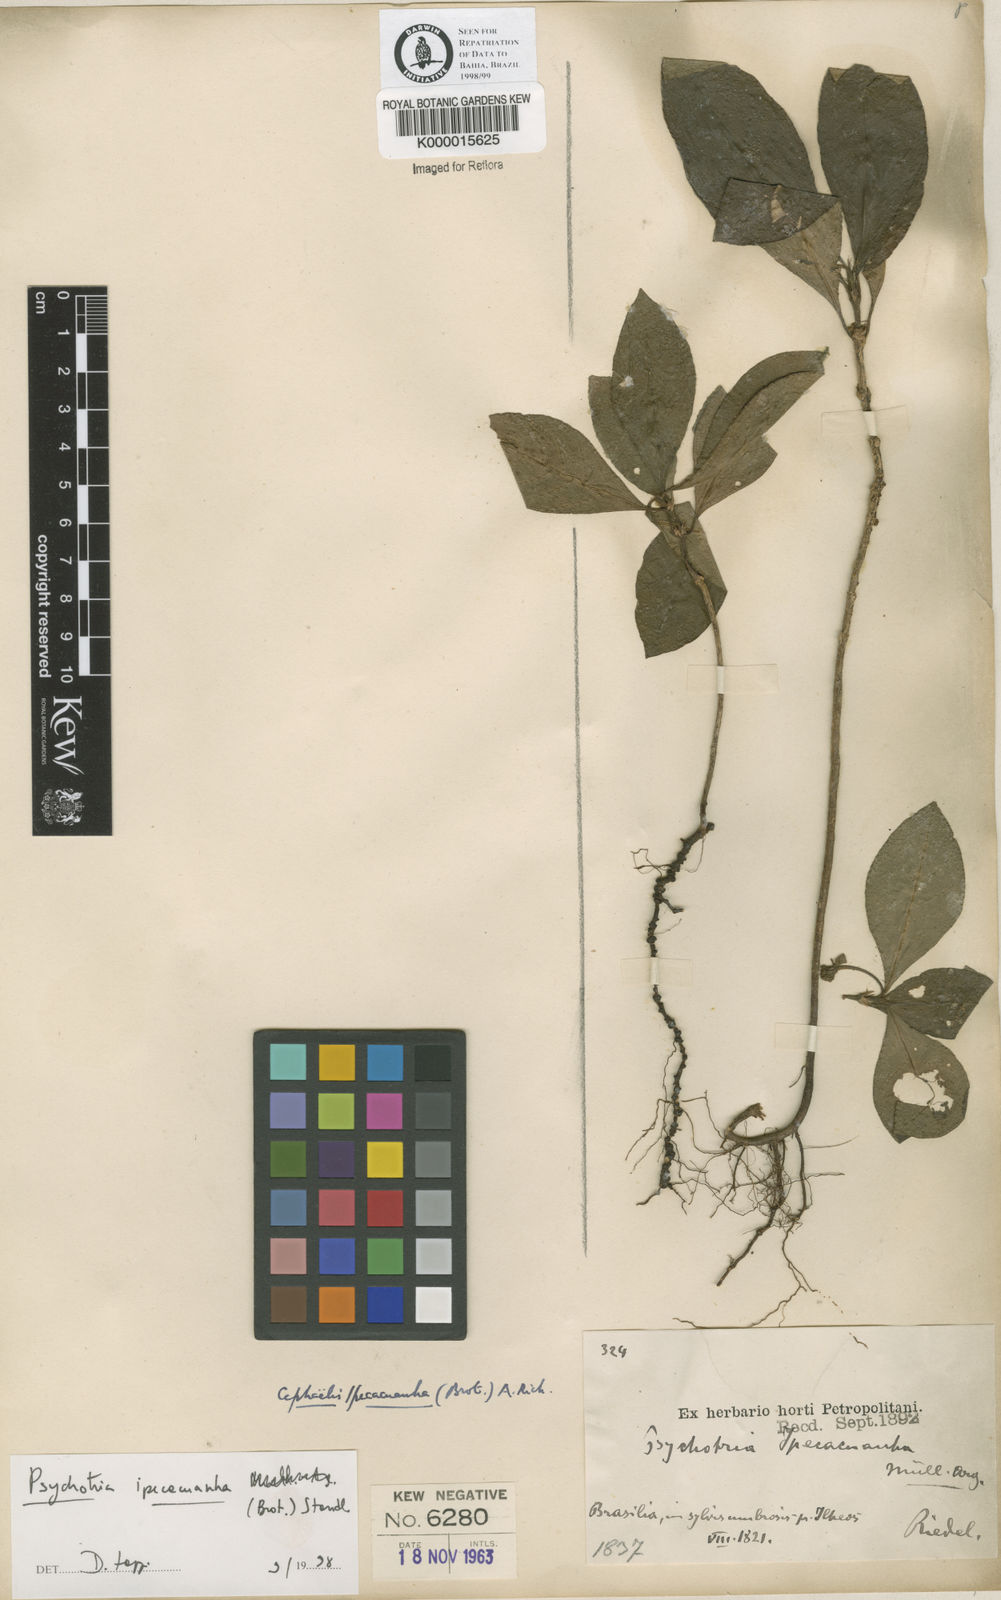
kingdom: Plantae
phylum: Tracheophyta
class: Magnoliopsida
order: Gentianales
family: Rubiaceae
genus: Psychotria
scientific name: Psychotria
